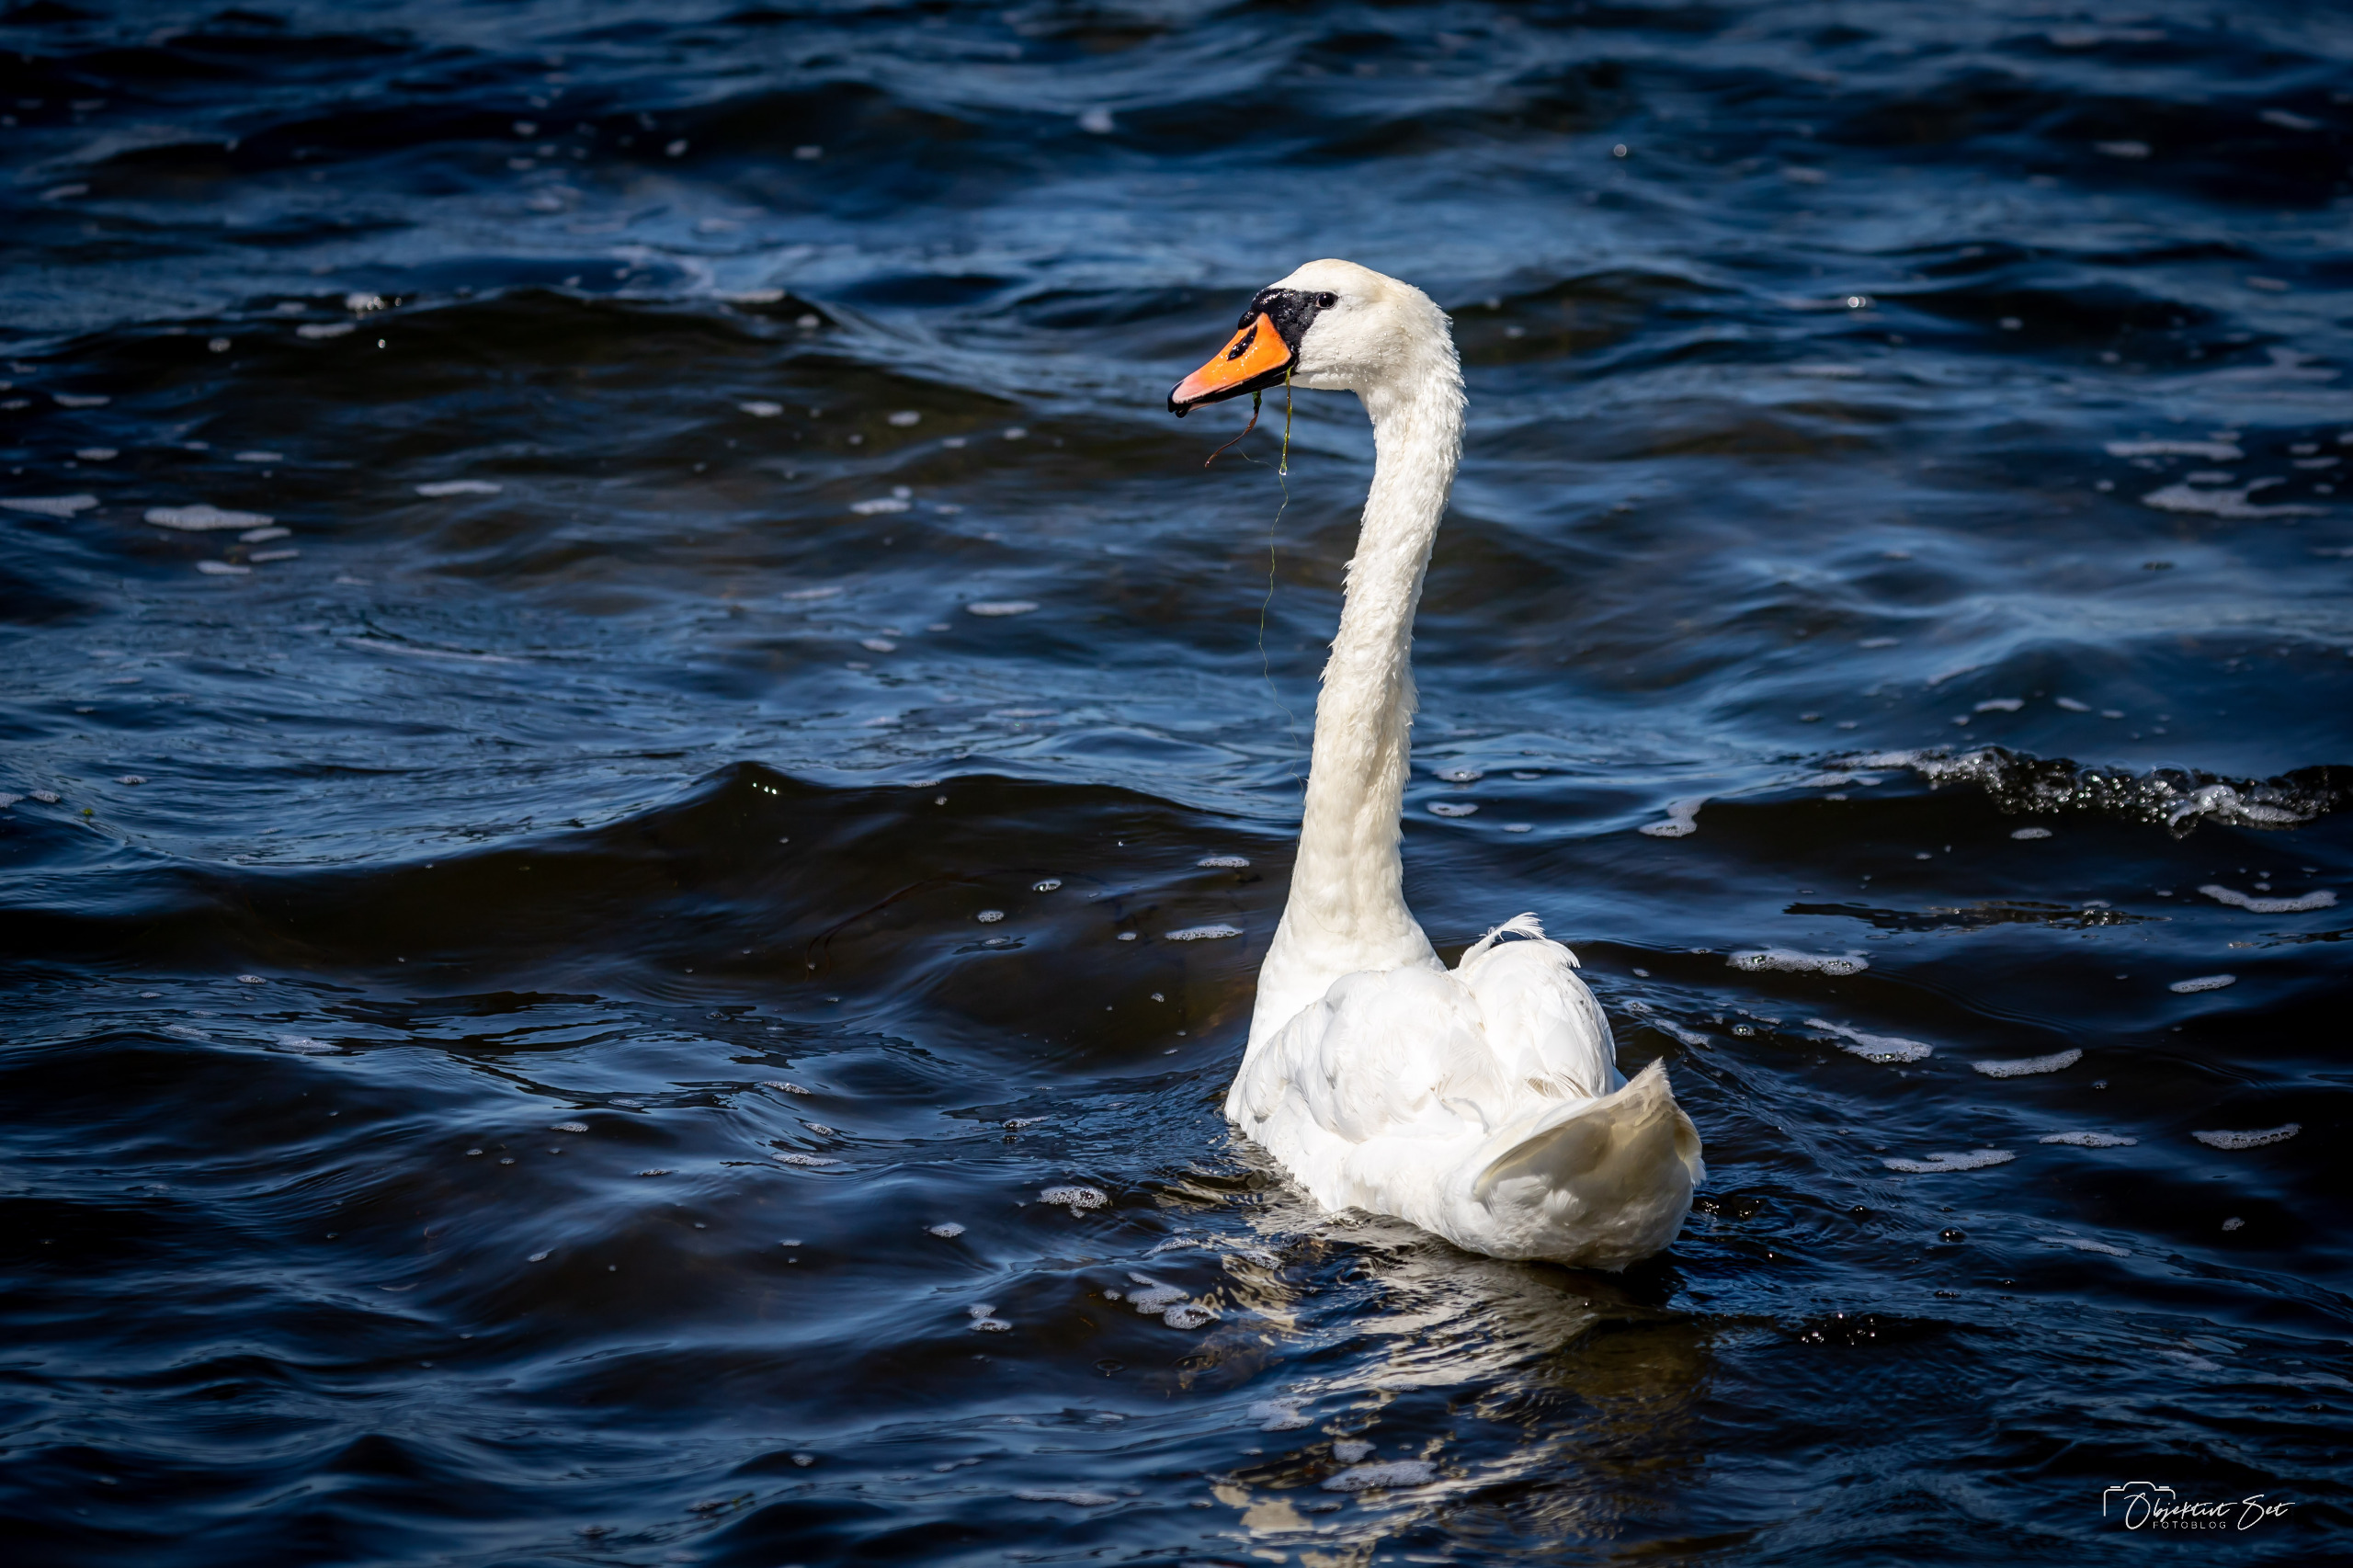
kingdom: Animalia
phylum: Chordata
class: Aves
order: Anseriformes
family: Anatidae
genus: Cygnus
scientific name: Cygnus olor
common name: Knopsvane
